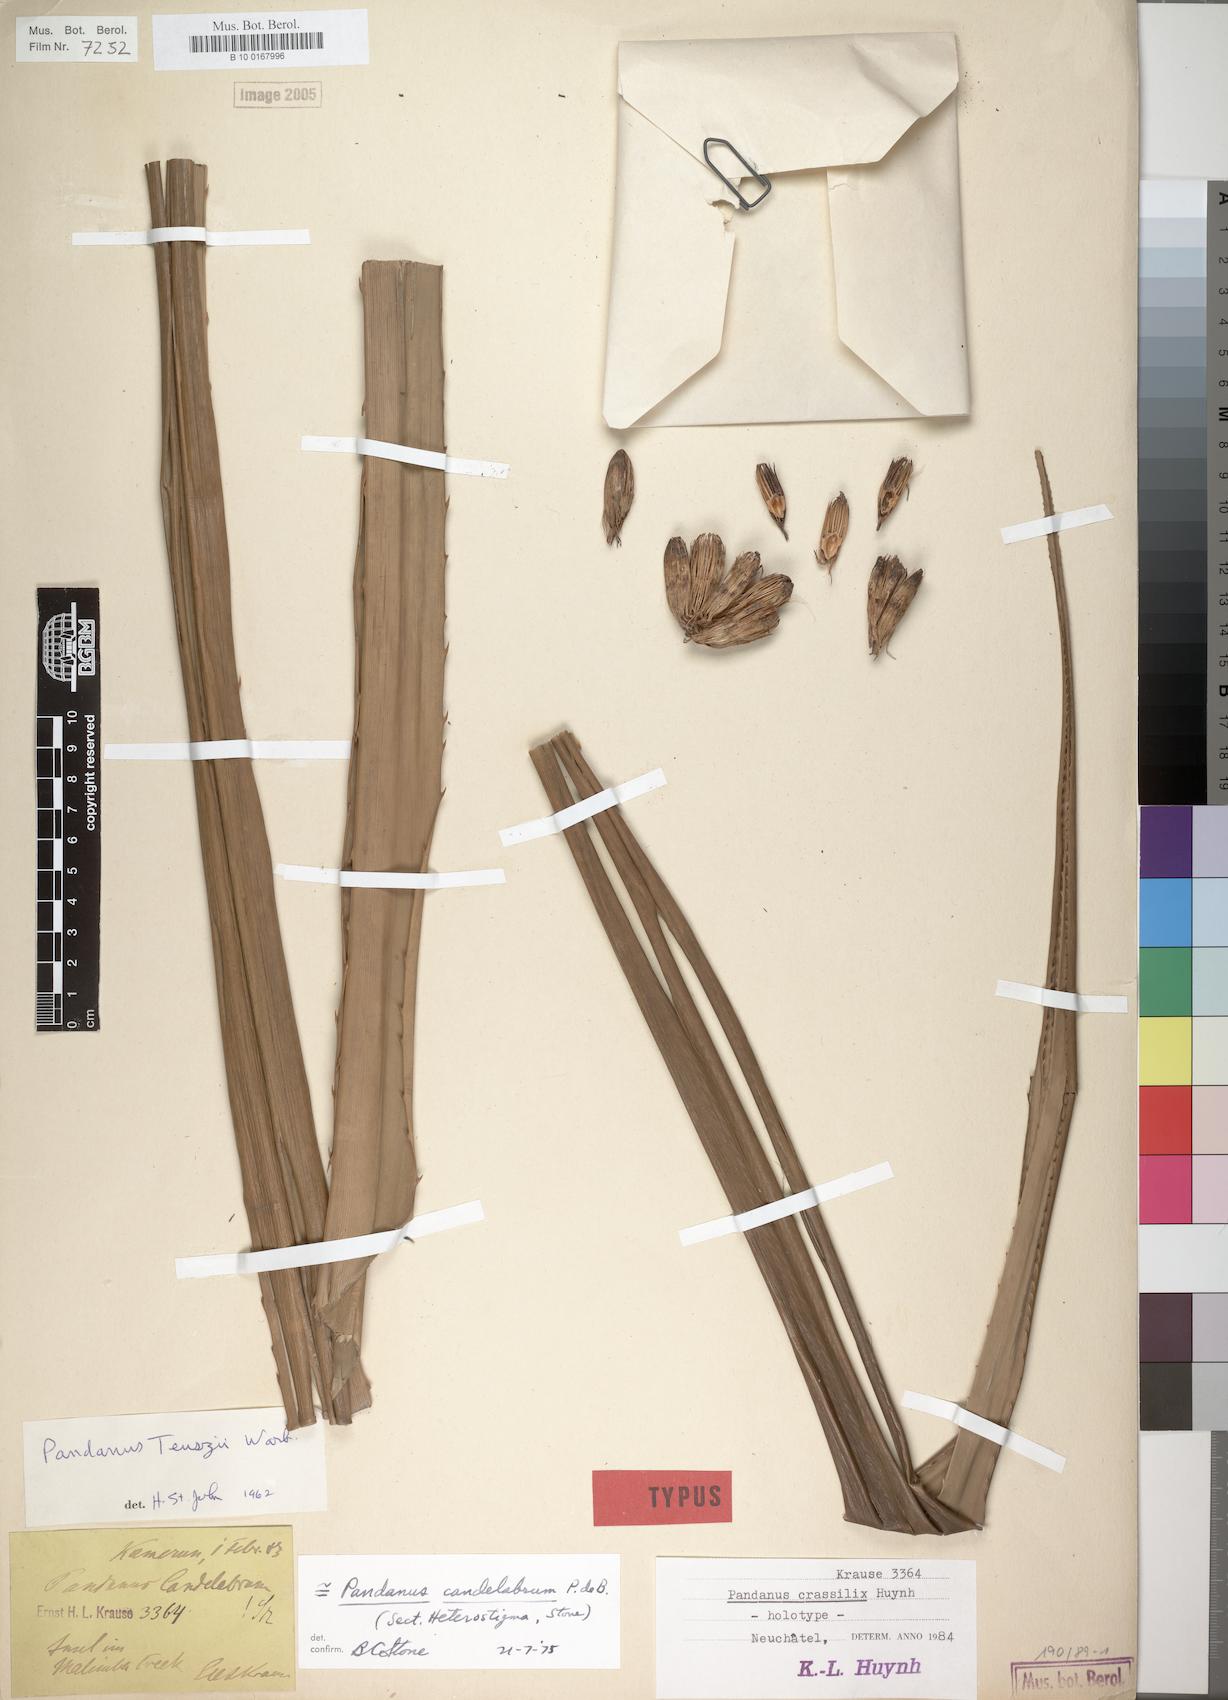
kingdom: Plantae
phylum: Tracheophyta
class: Liliopsida
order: Pandanales
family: Pandanaceae
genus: Pandanus
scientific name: Pandanus candelabrum
